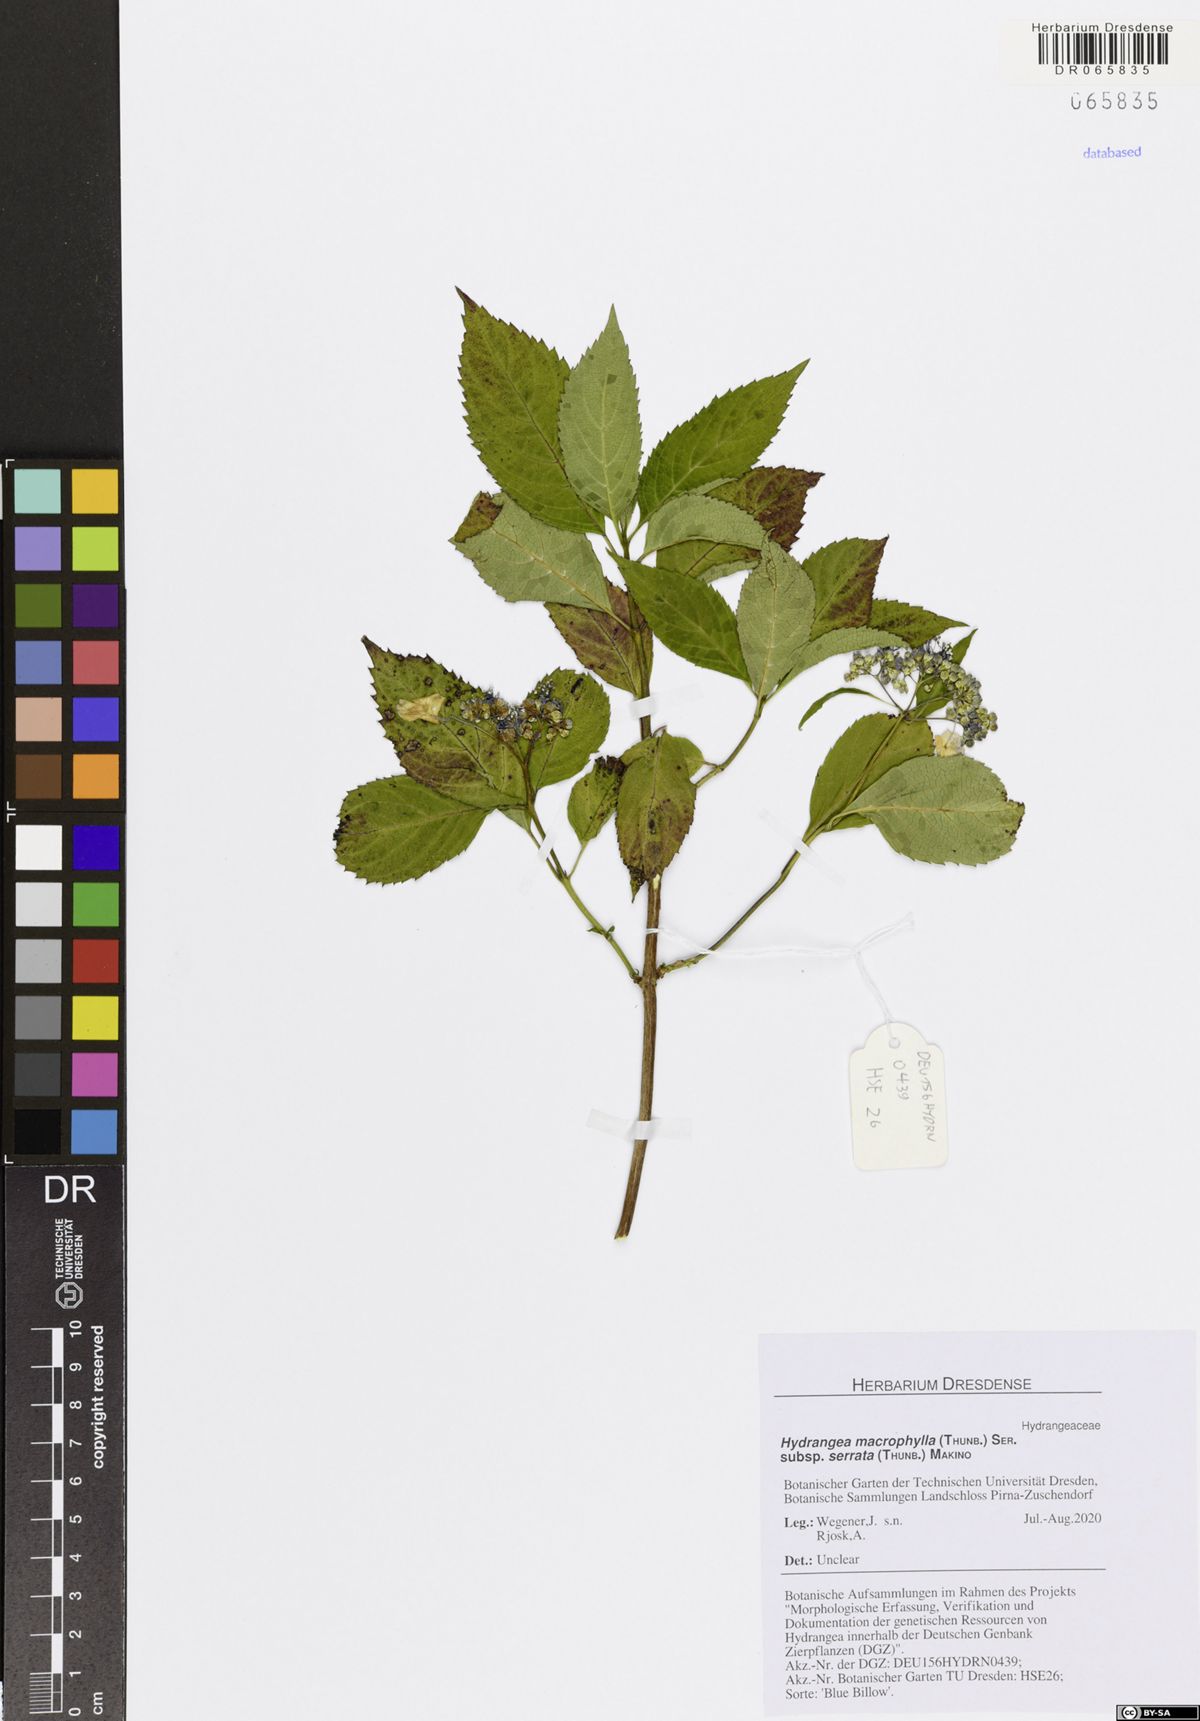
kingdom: Plantae
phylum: Tracheophyta
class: Magnoliopsida
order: Cornales
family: Hydrangeaceae
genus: Hydrangea
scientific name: Hydrangea serrata
